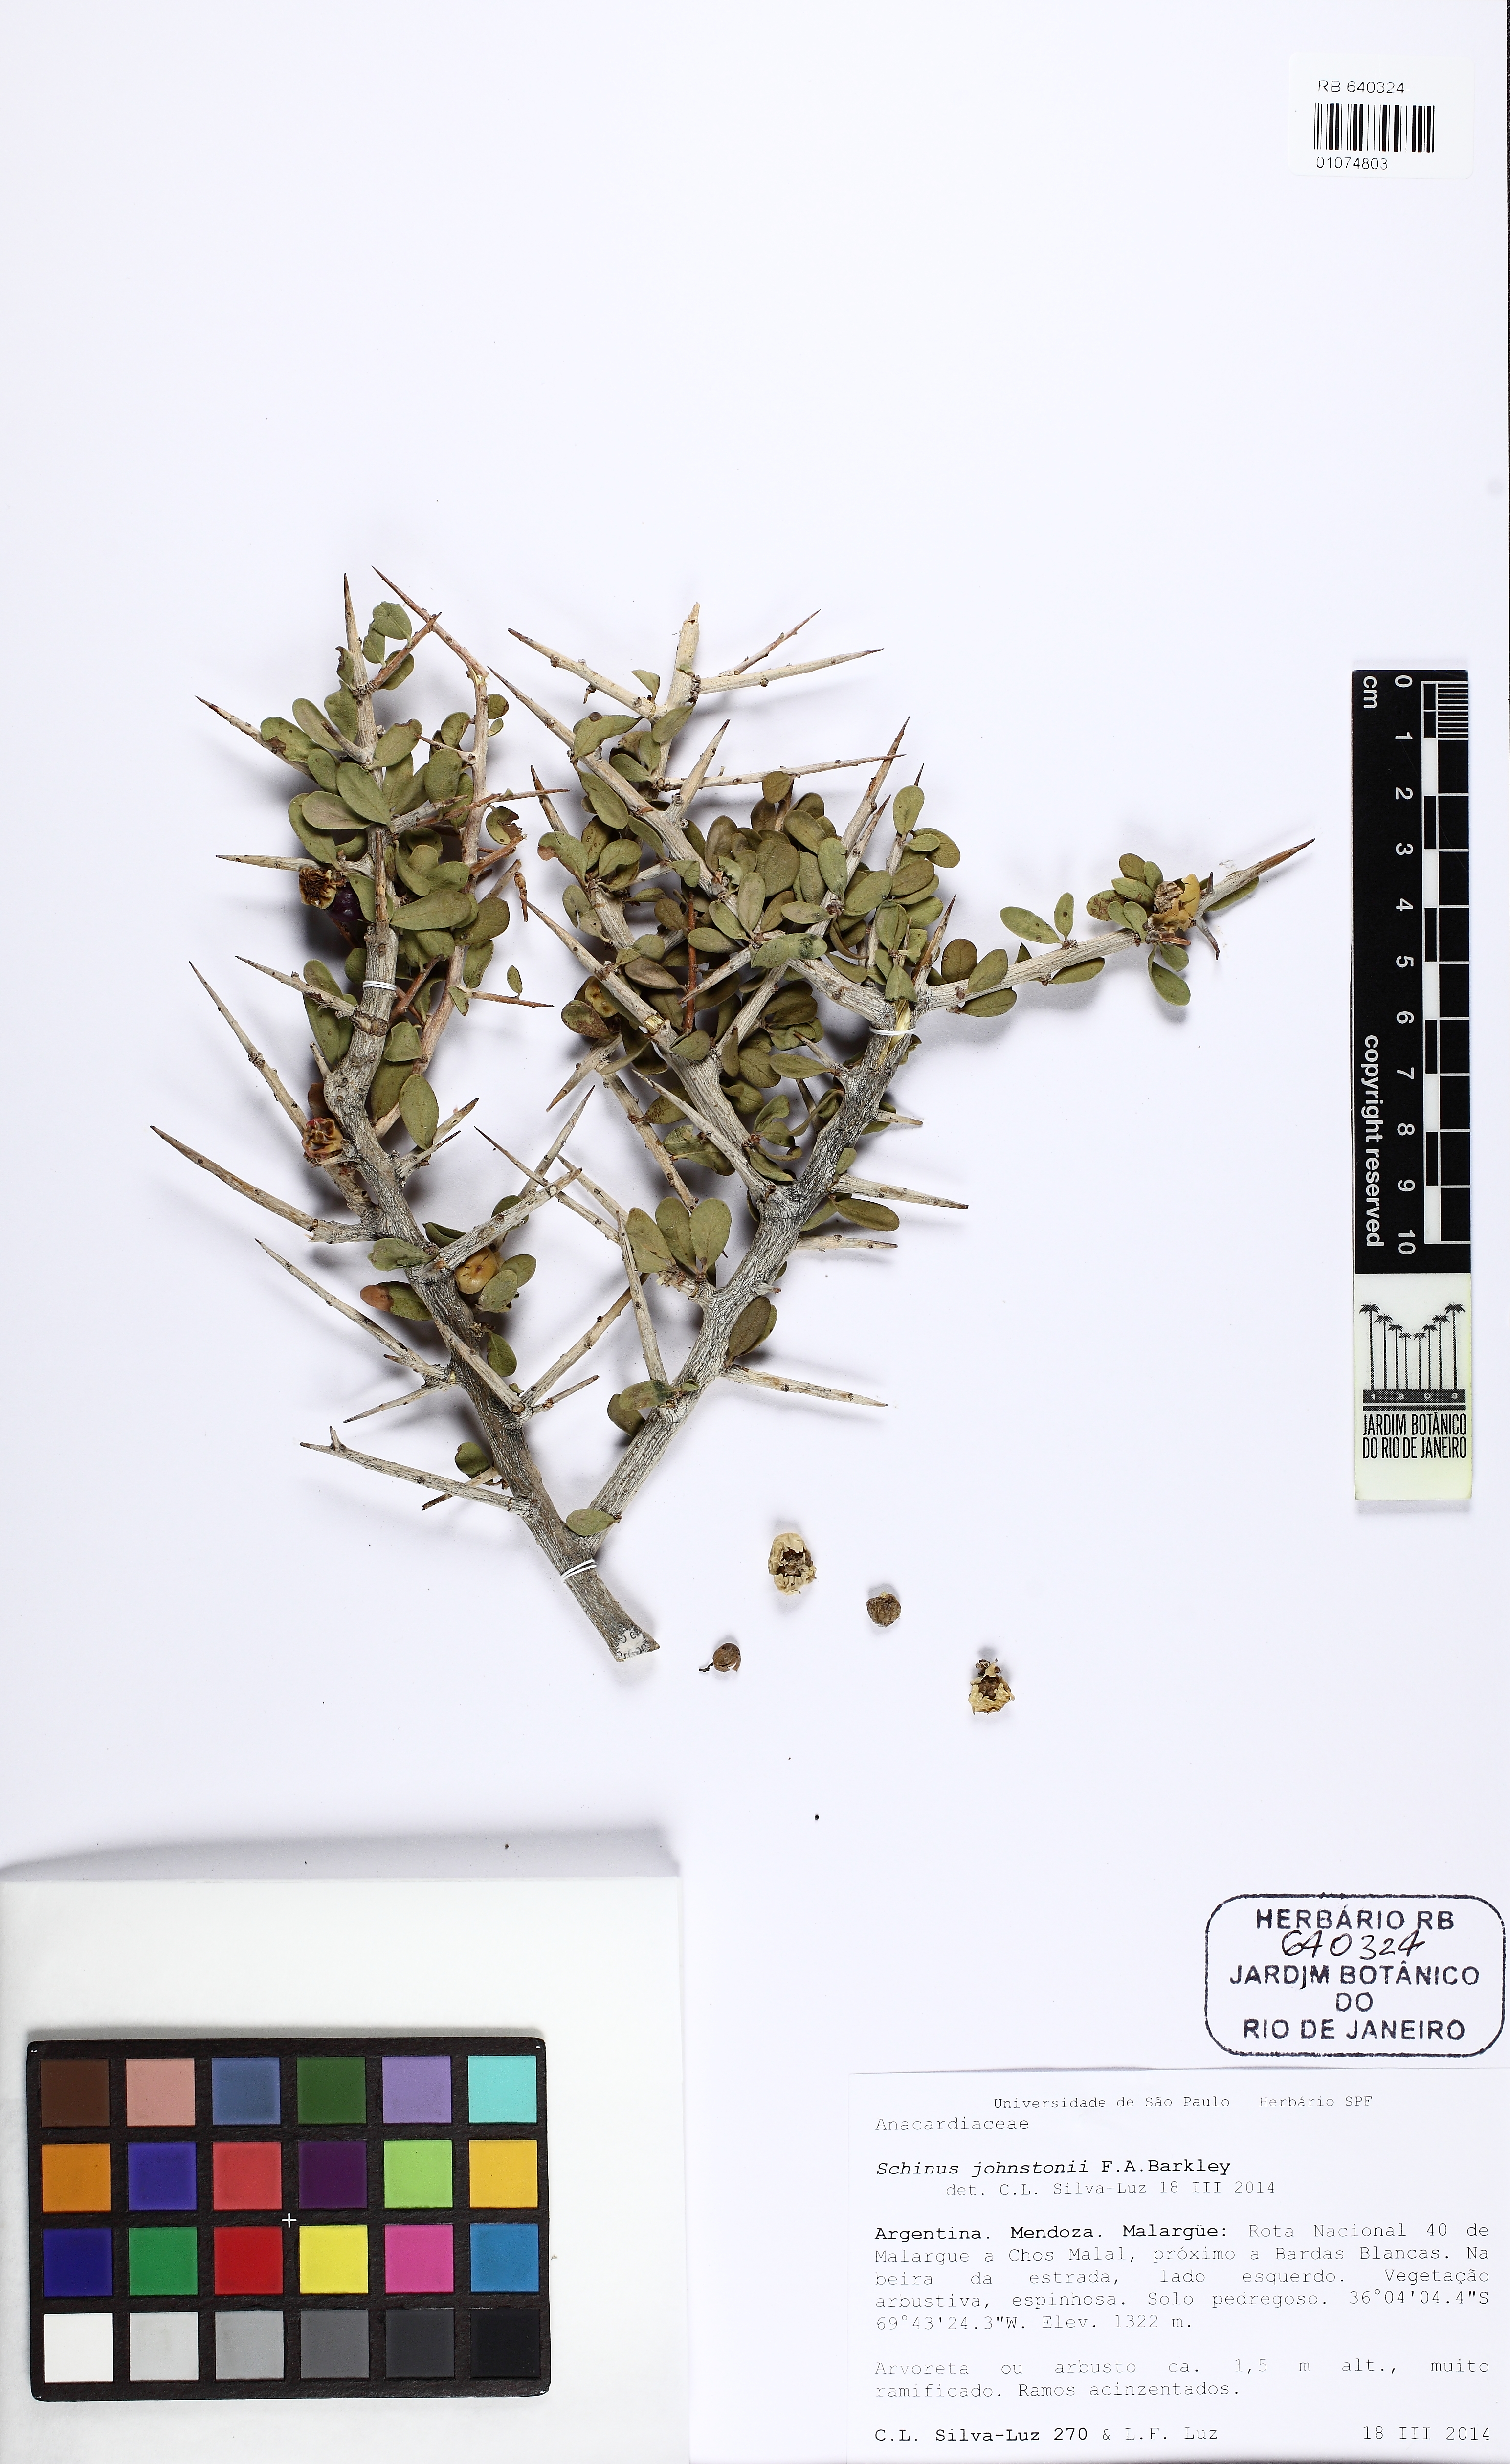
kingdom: Plantae
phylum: Tracheophyta
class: Magnoliopsida
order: Sapindales
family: Anacardiaceae
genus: Schinus
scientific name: Schinus johnstonii
